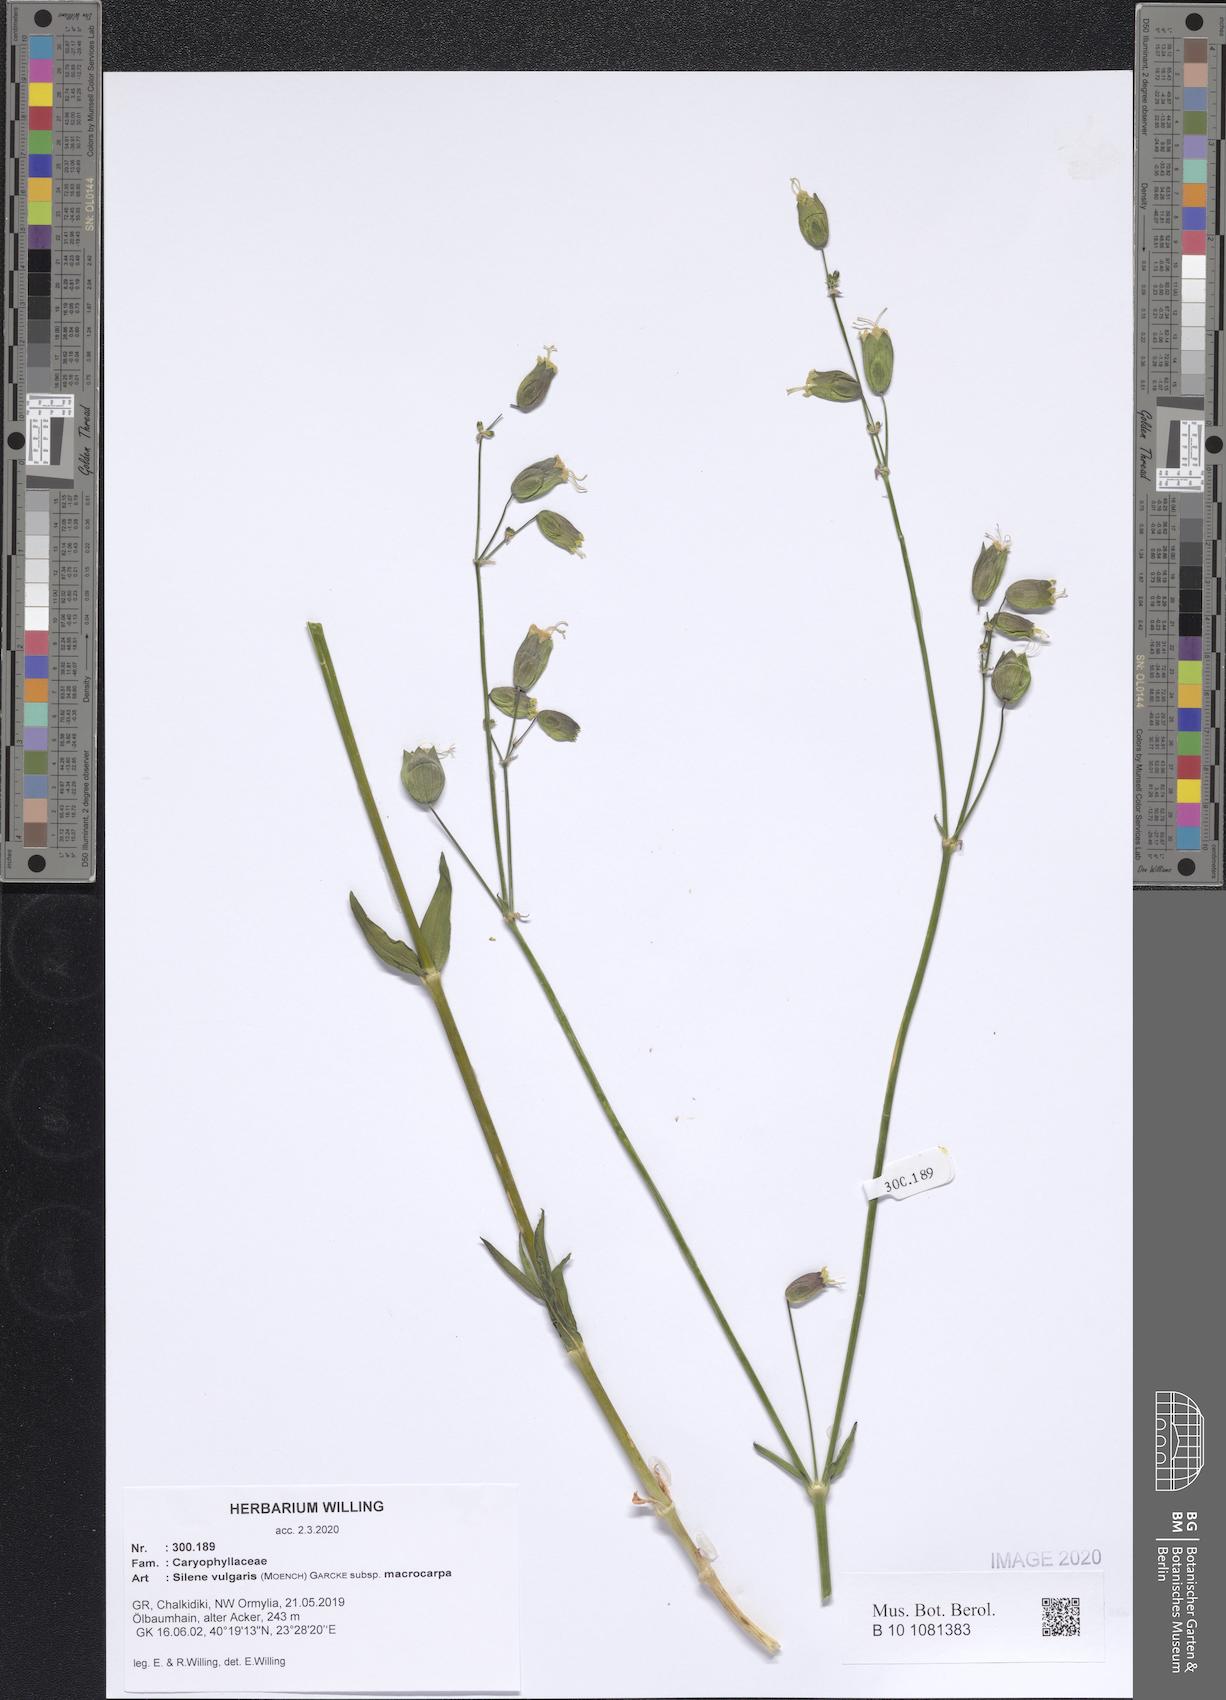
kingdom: Plantae
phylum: Tracheophyta
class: Magnoliopsida
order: Caryophyllales
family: Caryophyllaceae
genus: Silene
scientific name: Silene vulgaris
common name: Bladder campion
